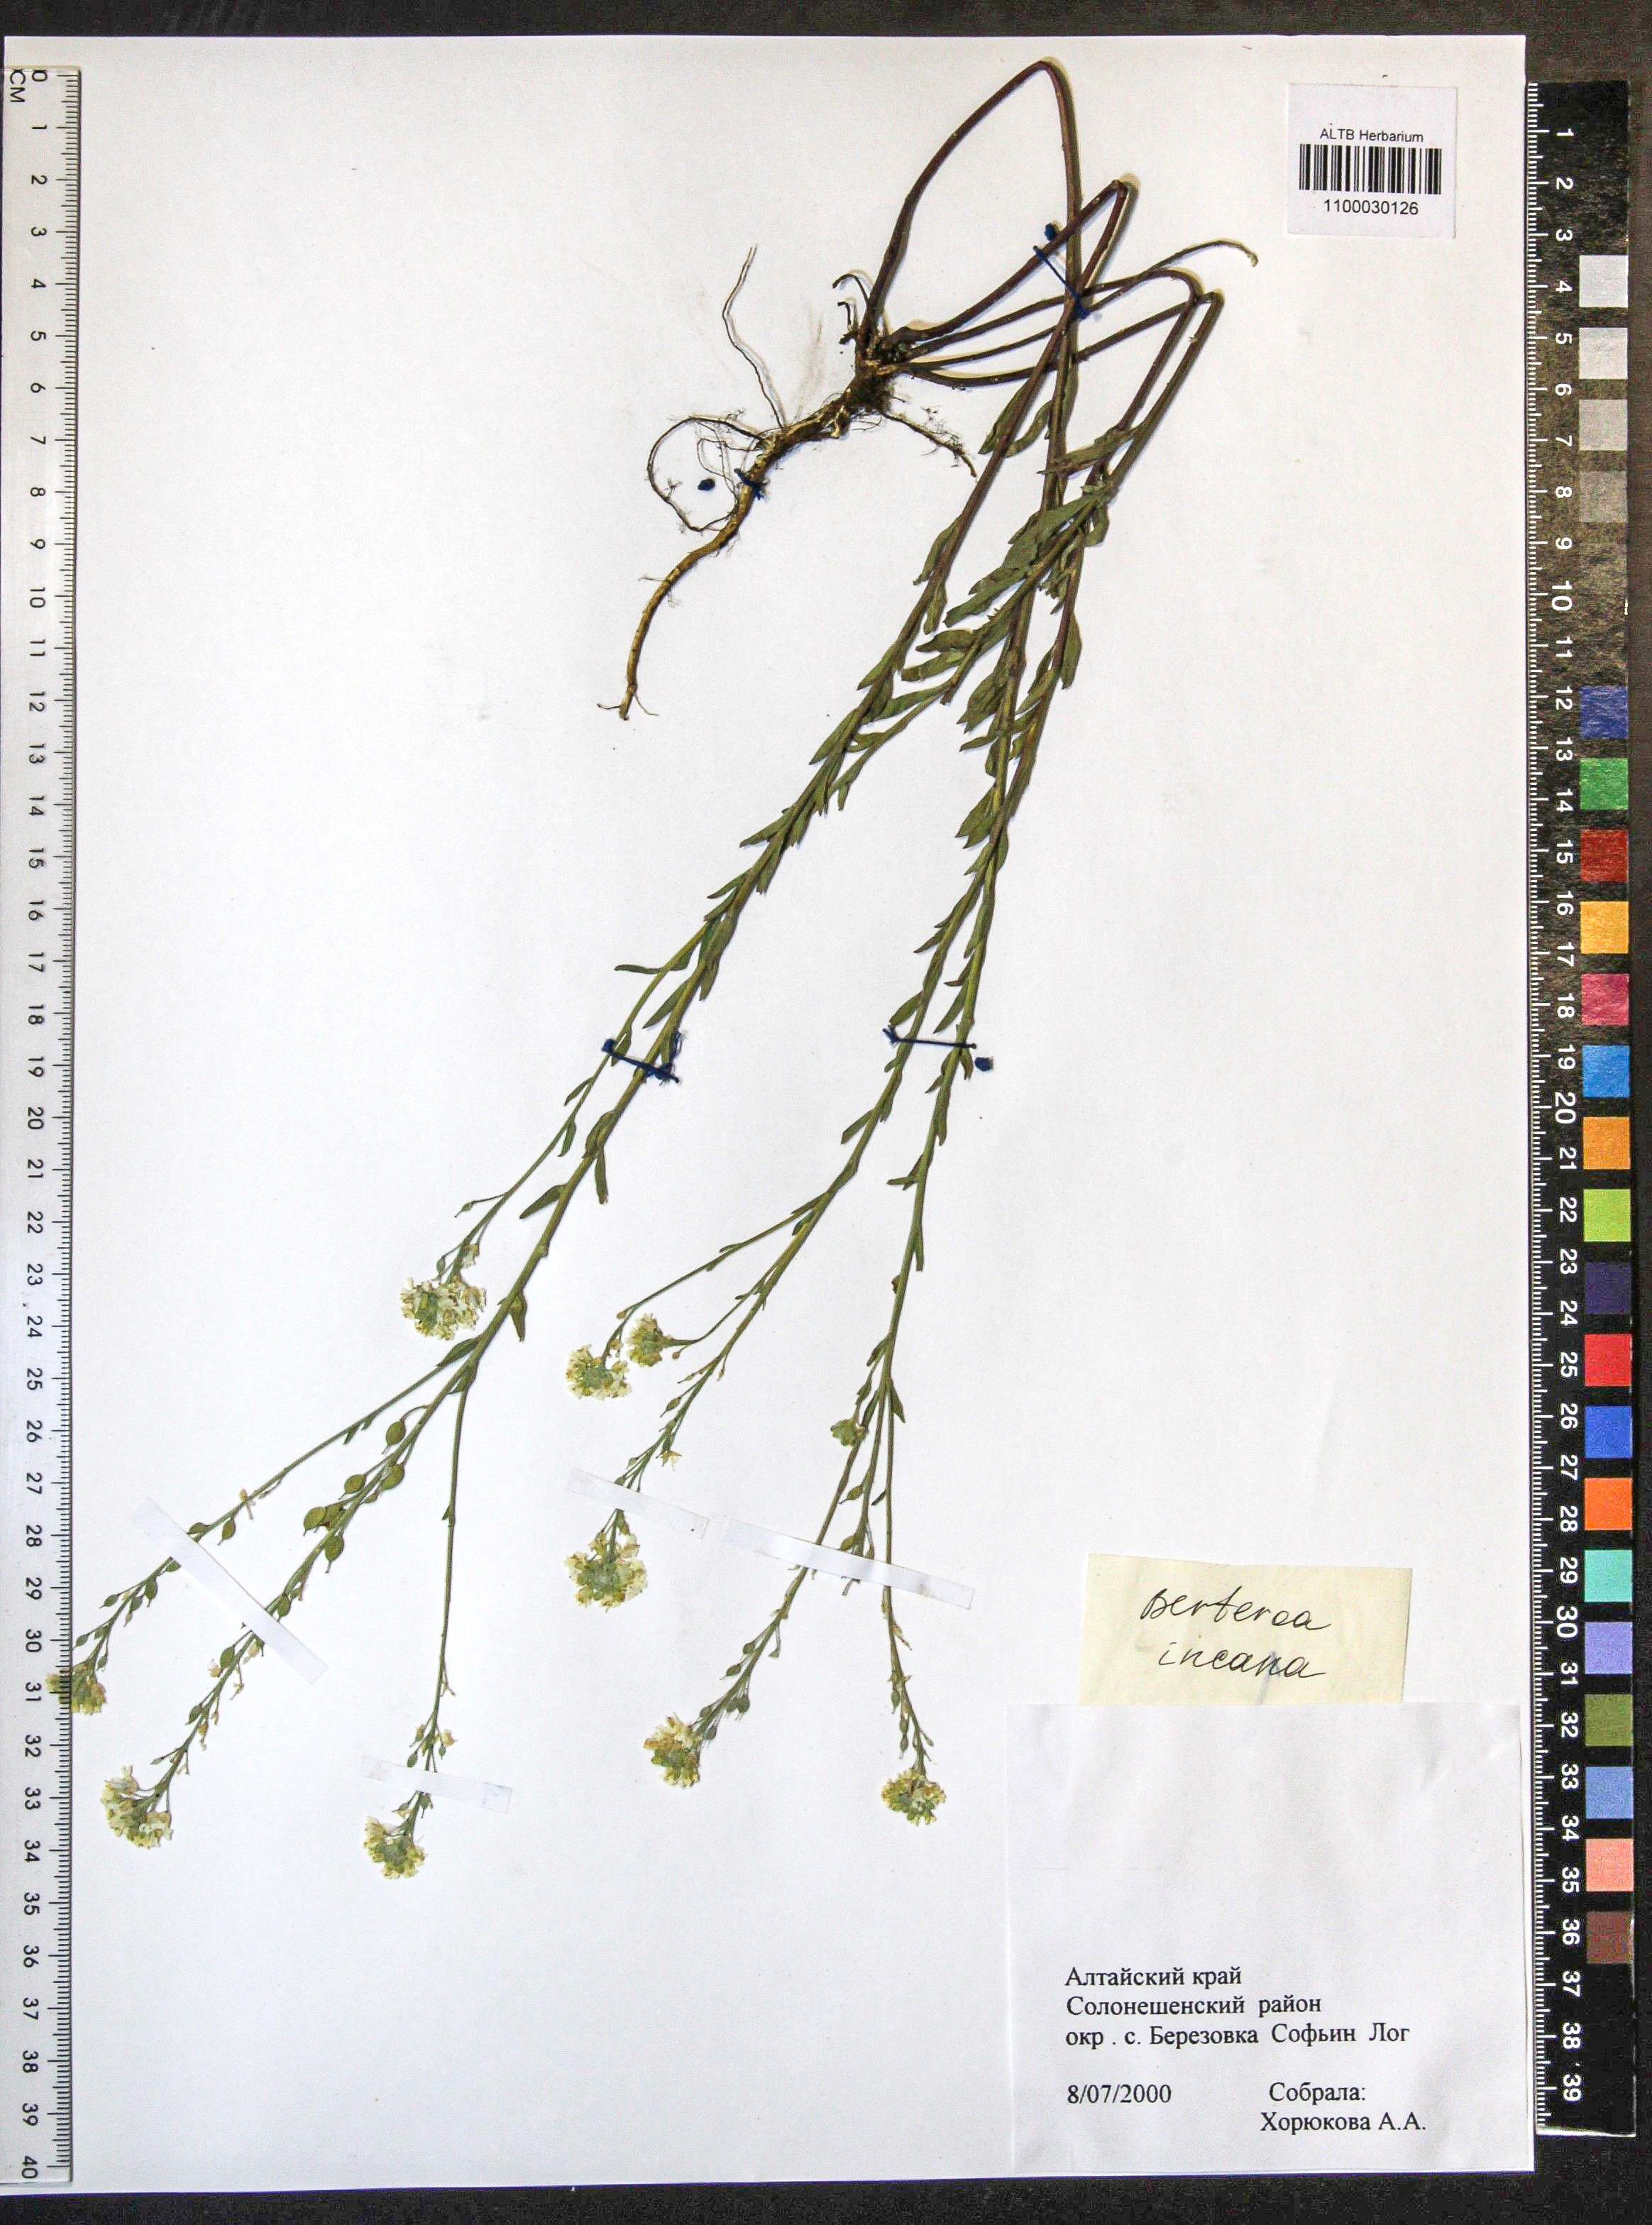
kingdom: Plantae
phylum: Tracheophyta
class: Magnoliopsida
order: Brassicales
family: Brassicaceae
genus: Berteroa
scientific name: Berteroa incana
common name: Hoary alison
